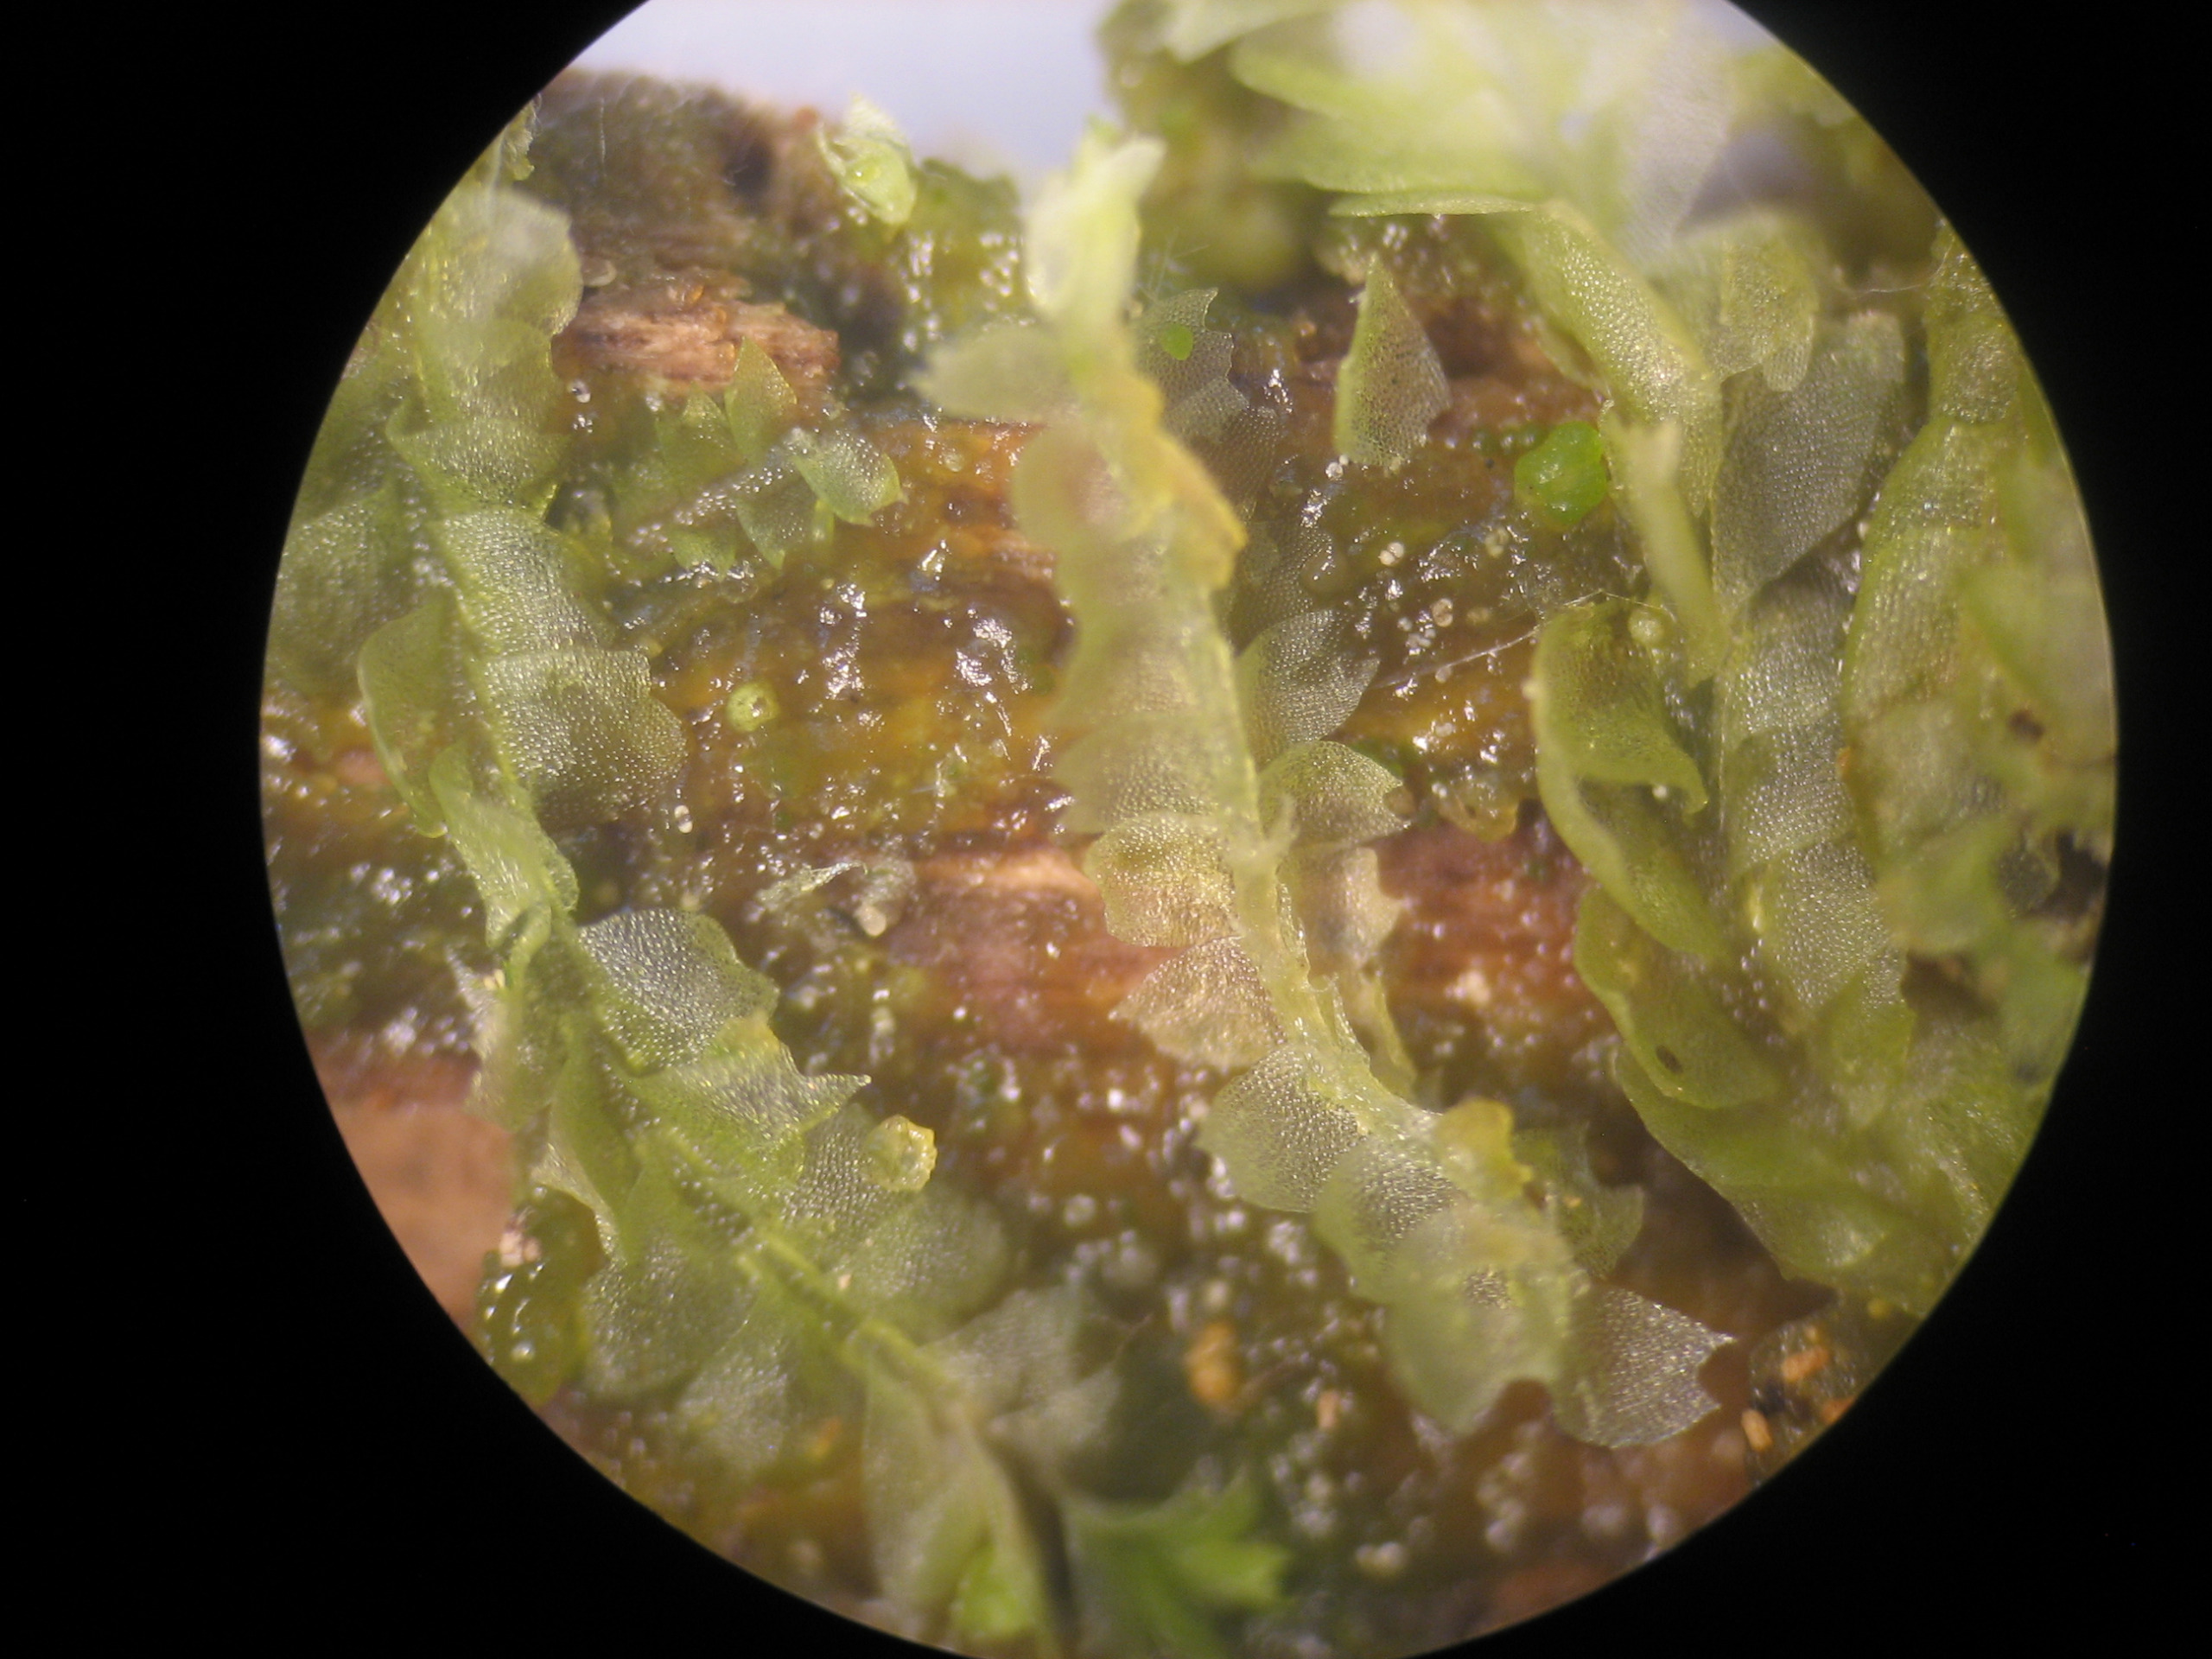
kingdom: Plantae
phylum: Marchantiophyta
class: Jungermanniopsida
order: Jungermanniales
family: Lophocoleaceae
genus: Lophocolea
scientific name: Lophocolea heterophylla
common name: Forskelligbladet kamsvøb
